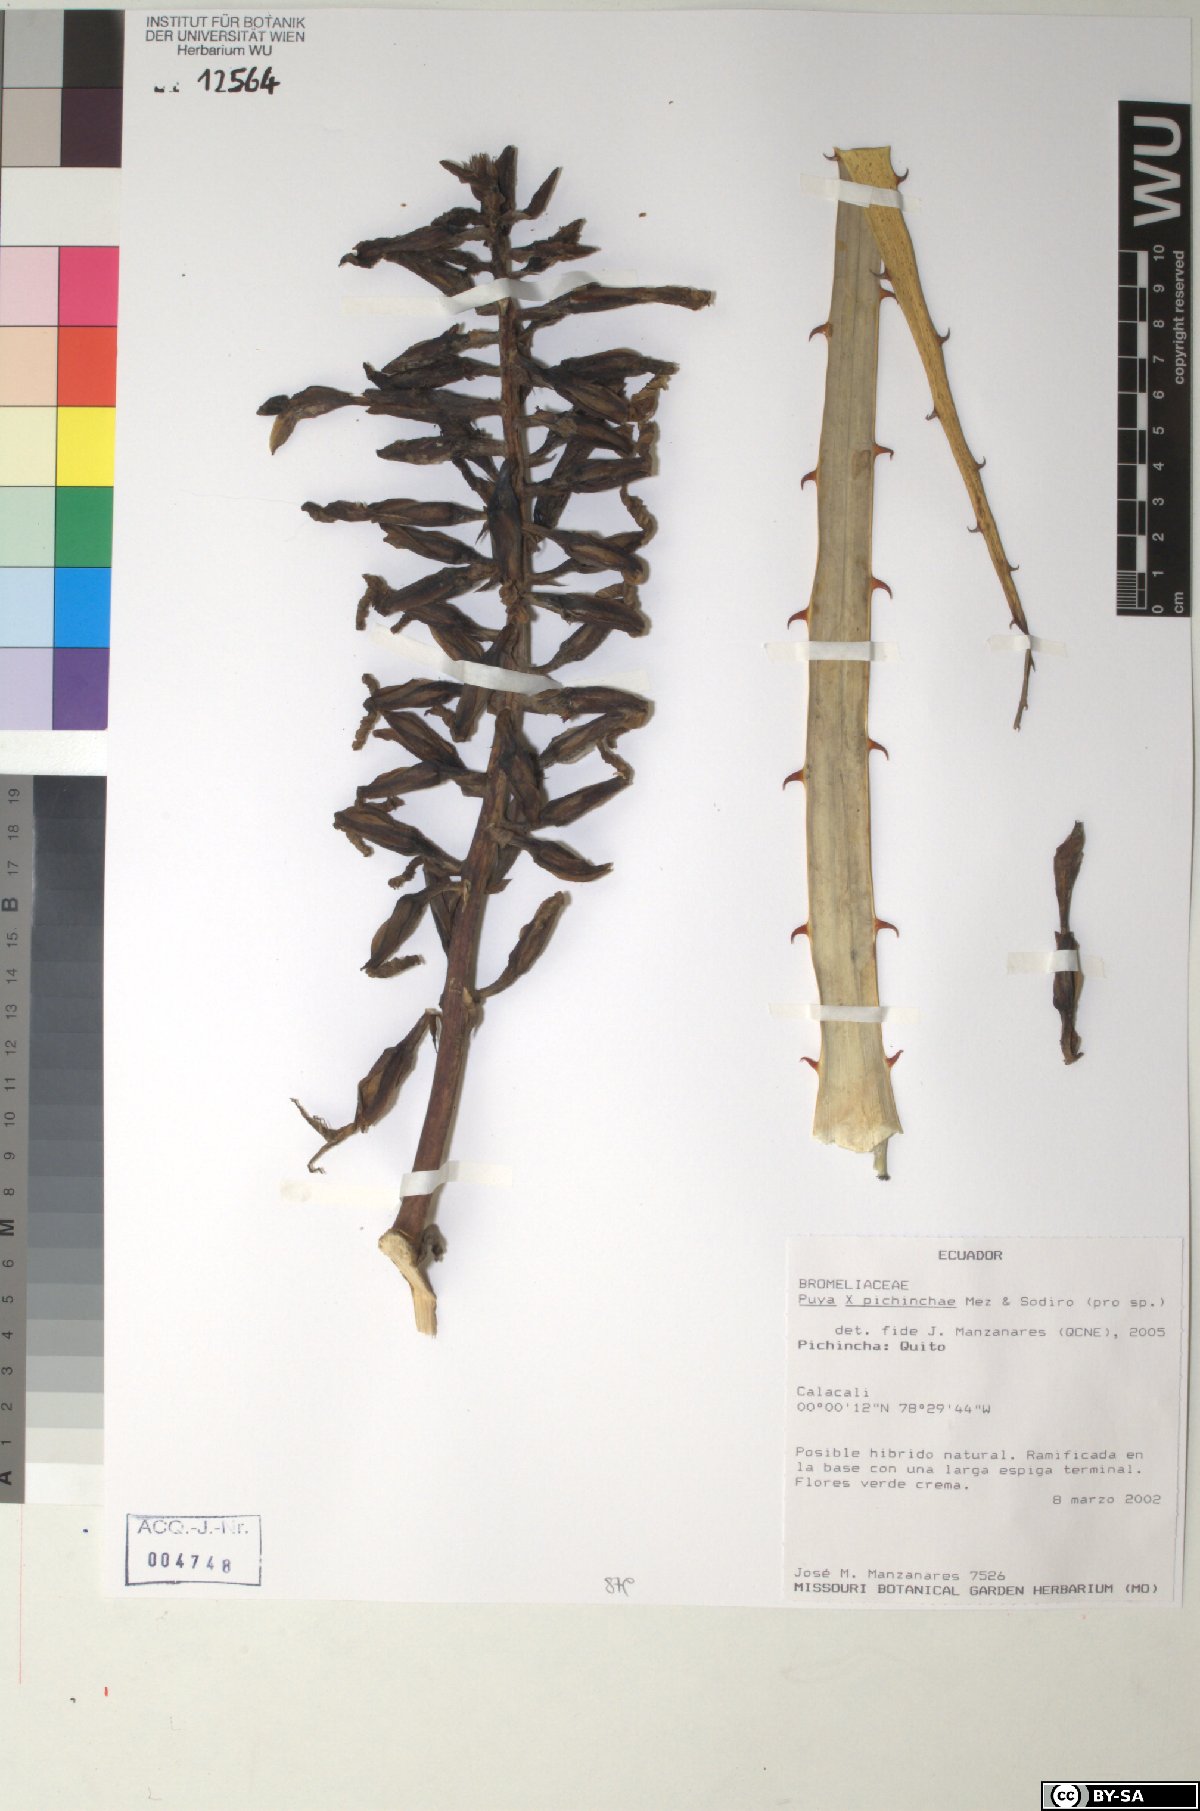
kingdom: Plantae
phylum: Tracheophyta
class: Liliopsida
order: Poales
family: Bromeliaceae
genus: Puya
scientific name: Puya pichinchae
